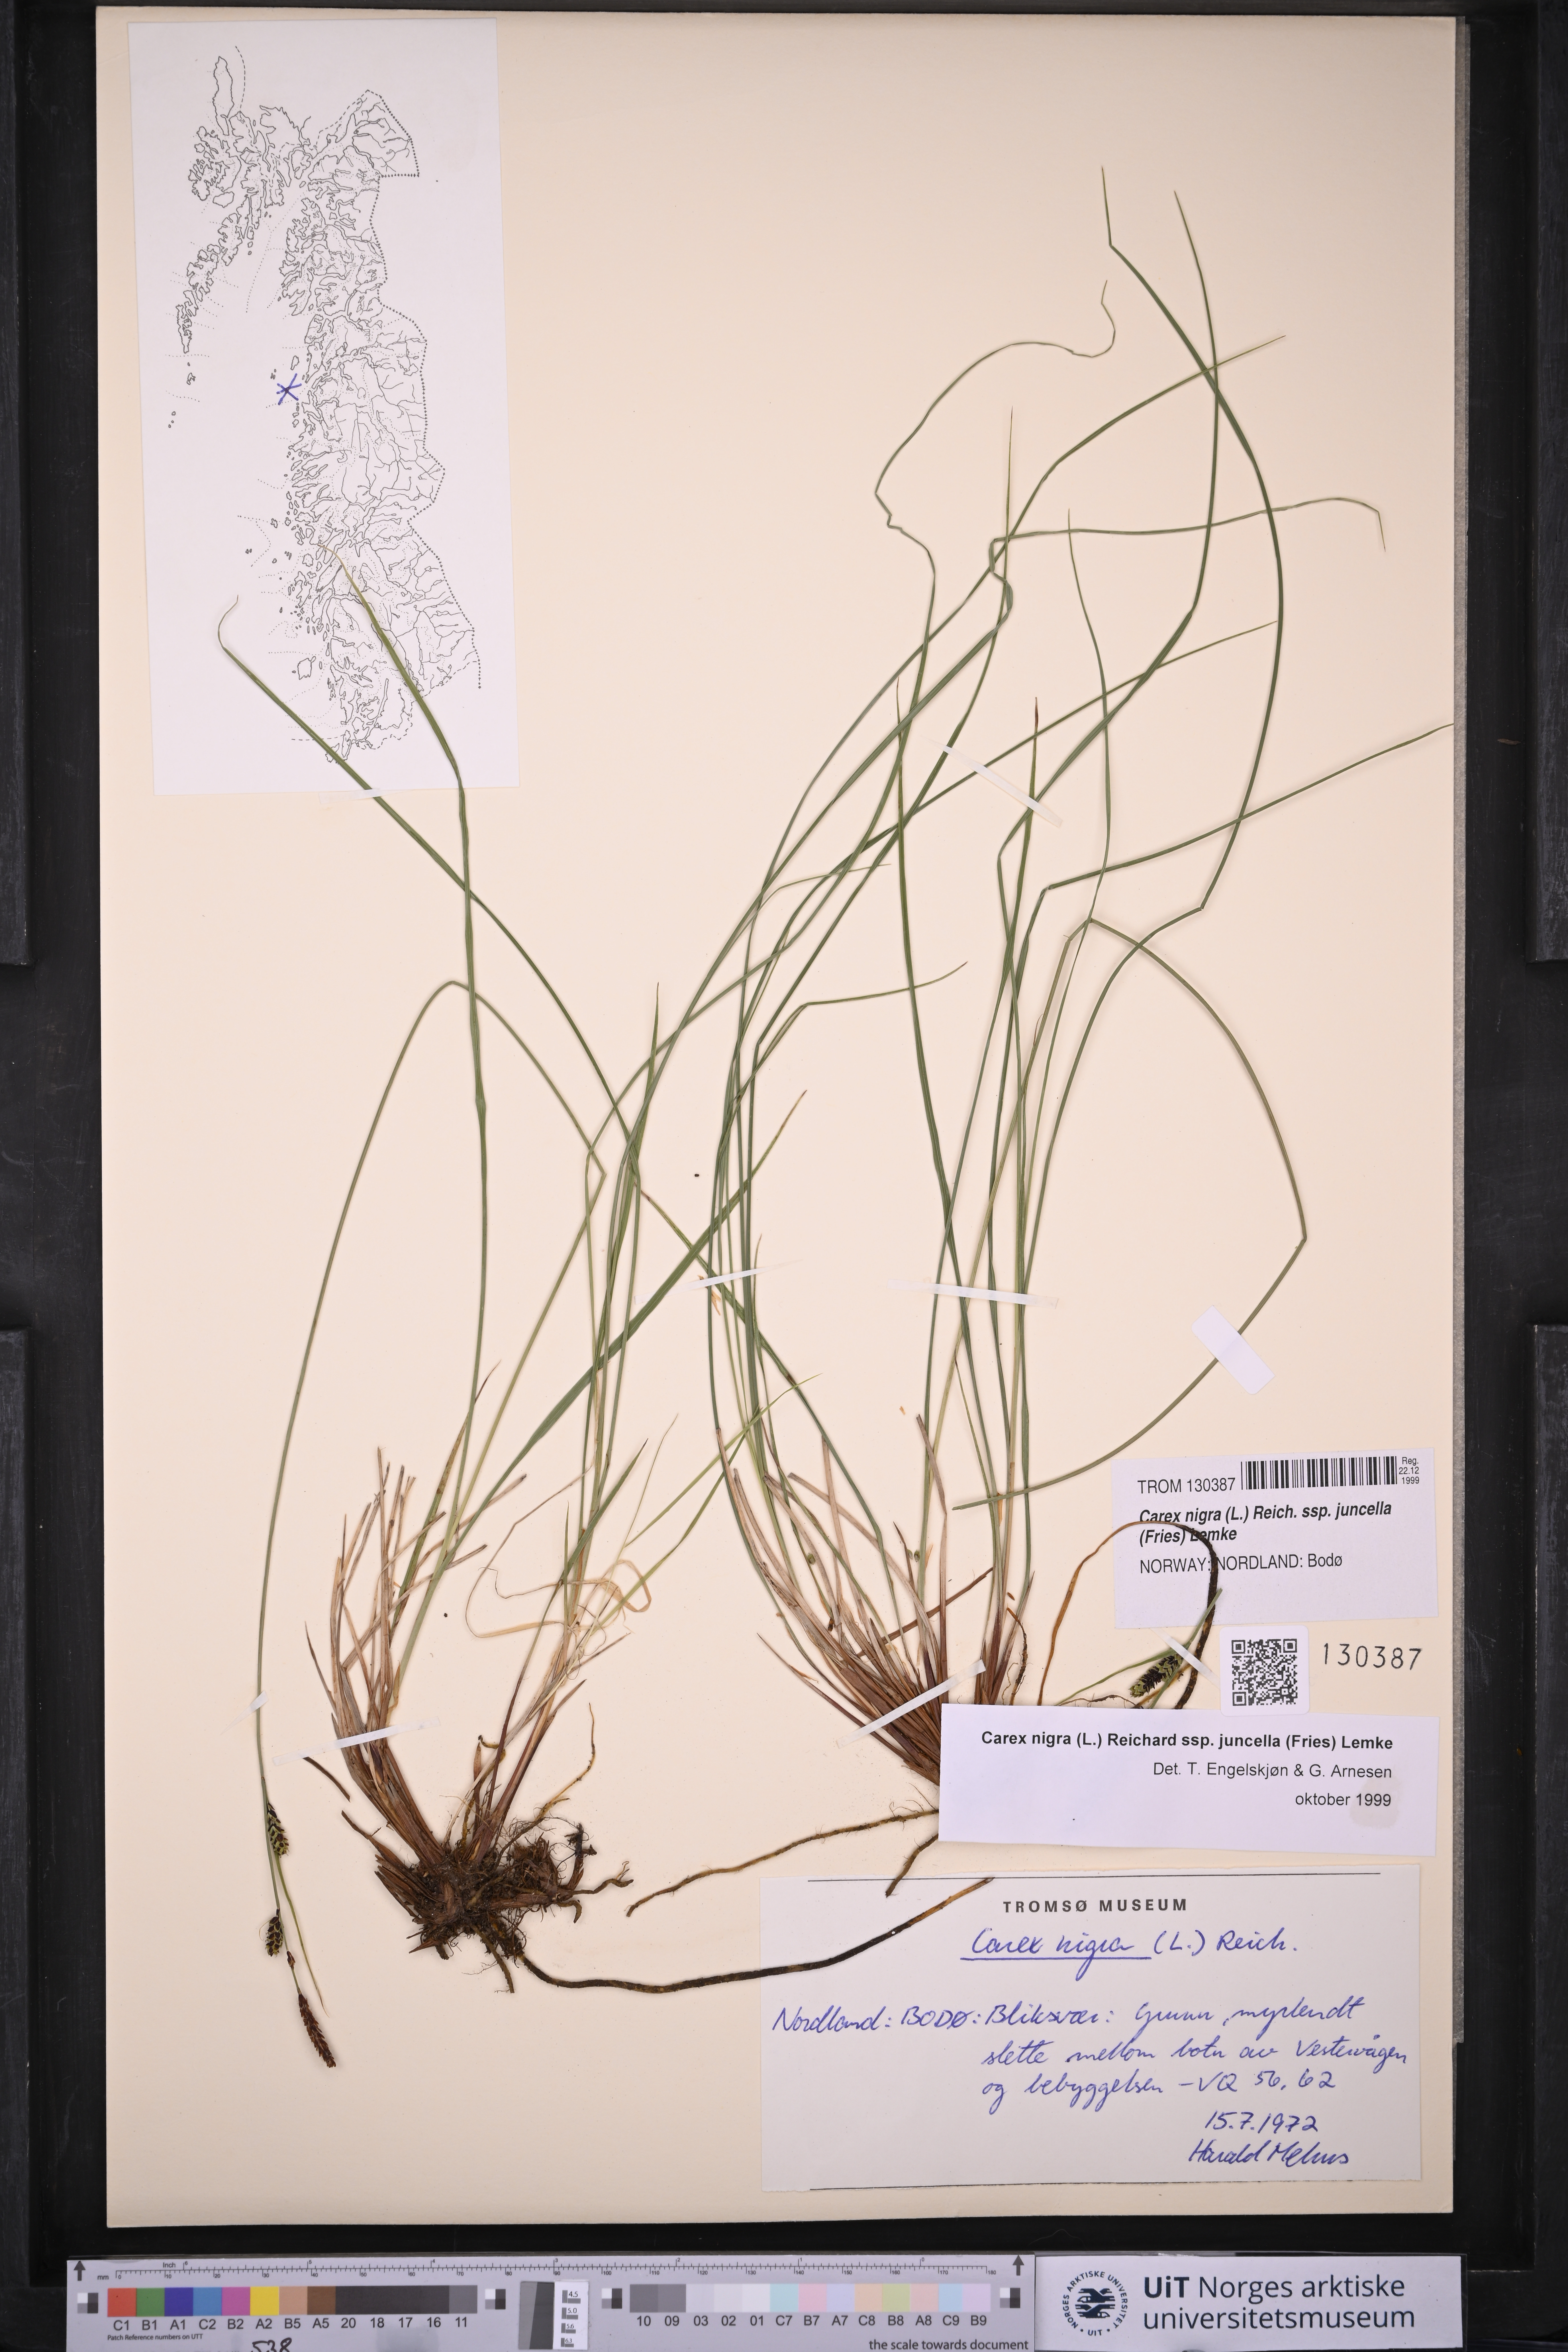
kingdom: Plantae
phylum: Tracheophyta
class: Liliopsida
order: Poales
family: Cyperaceae
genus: Carex
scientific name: Carex nigra
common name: Common sedge
